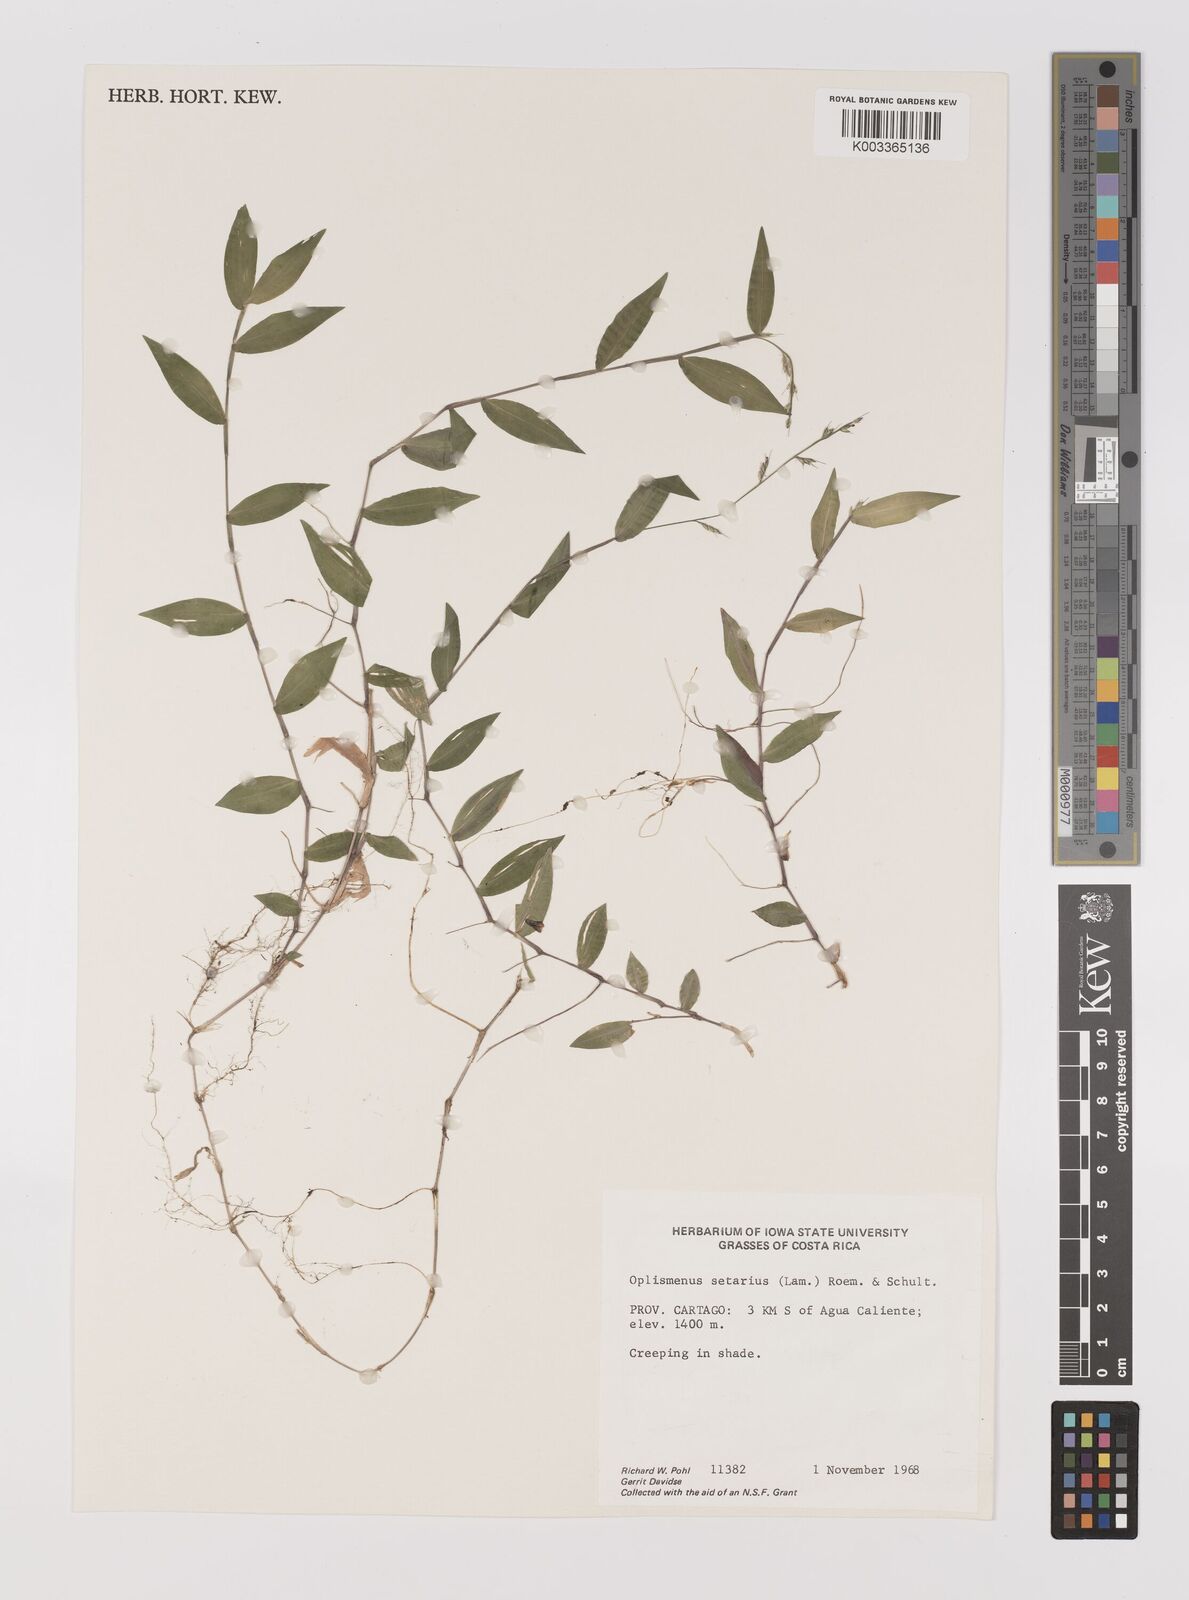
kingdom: Plantae
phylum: Tracheophyta
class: Liliopsida
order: Poales
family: Poaceae
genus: Oplismenus
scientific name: Oplismenus hirtellus
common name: Basketgrass
